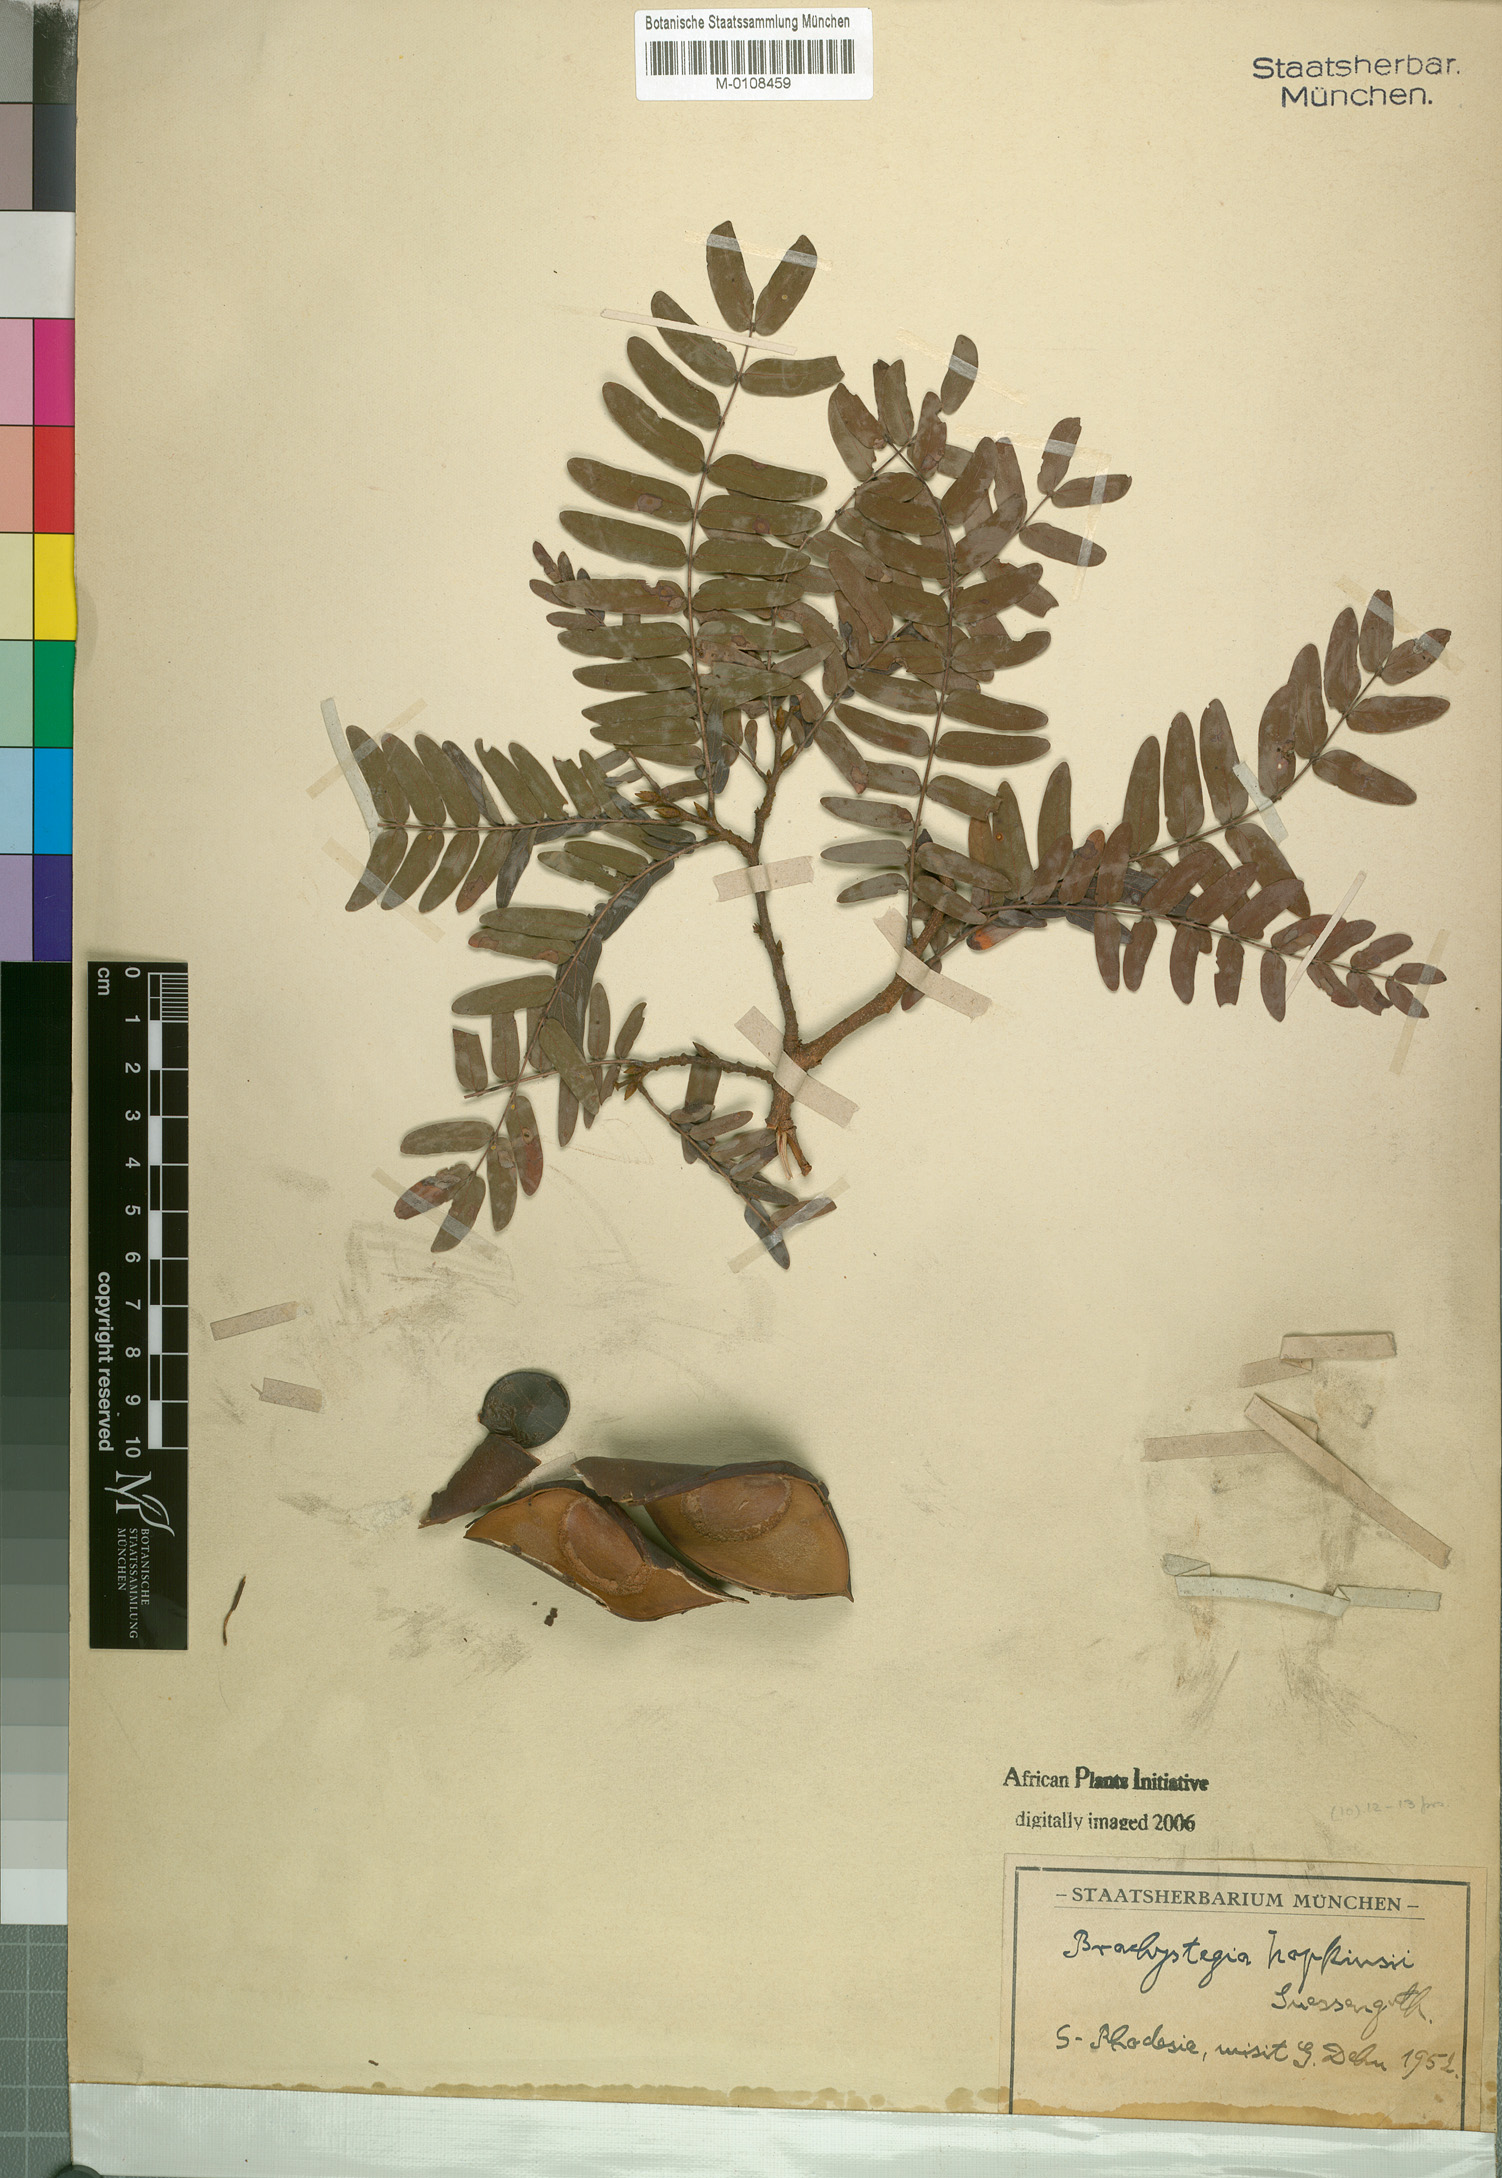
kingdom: Plantae
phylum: Tracheophyta
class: Magnoliopsida
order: Fabales
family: Fabaceae
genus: Brachystegia
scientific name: Brachystegia boehmii
